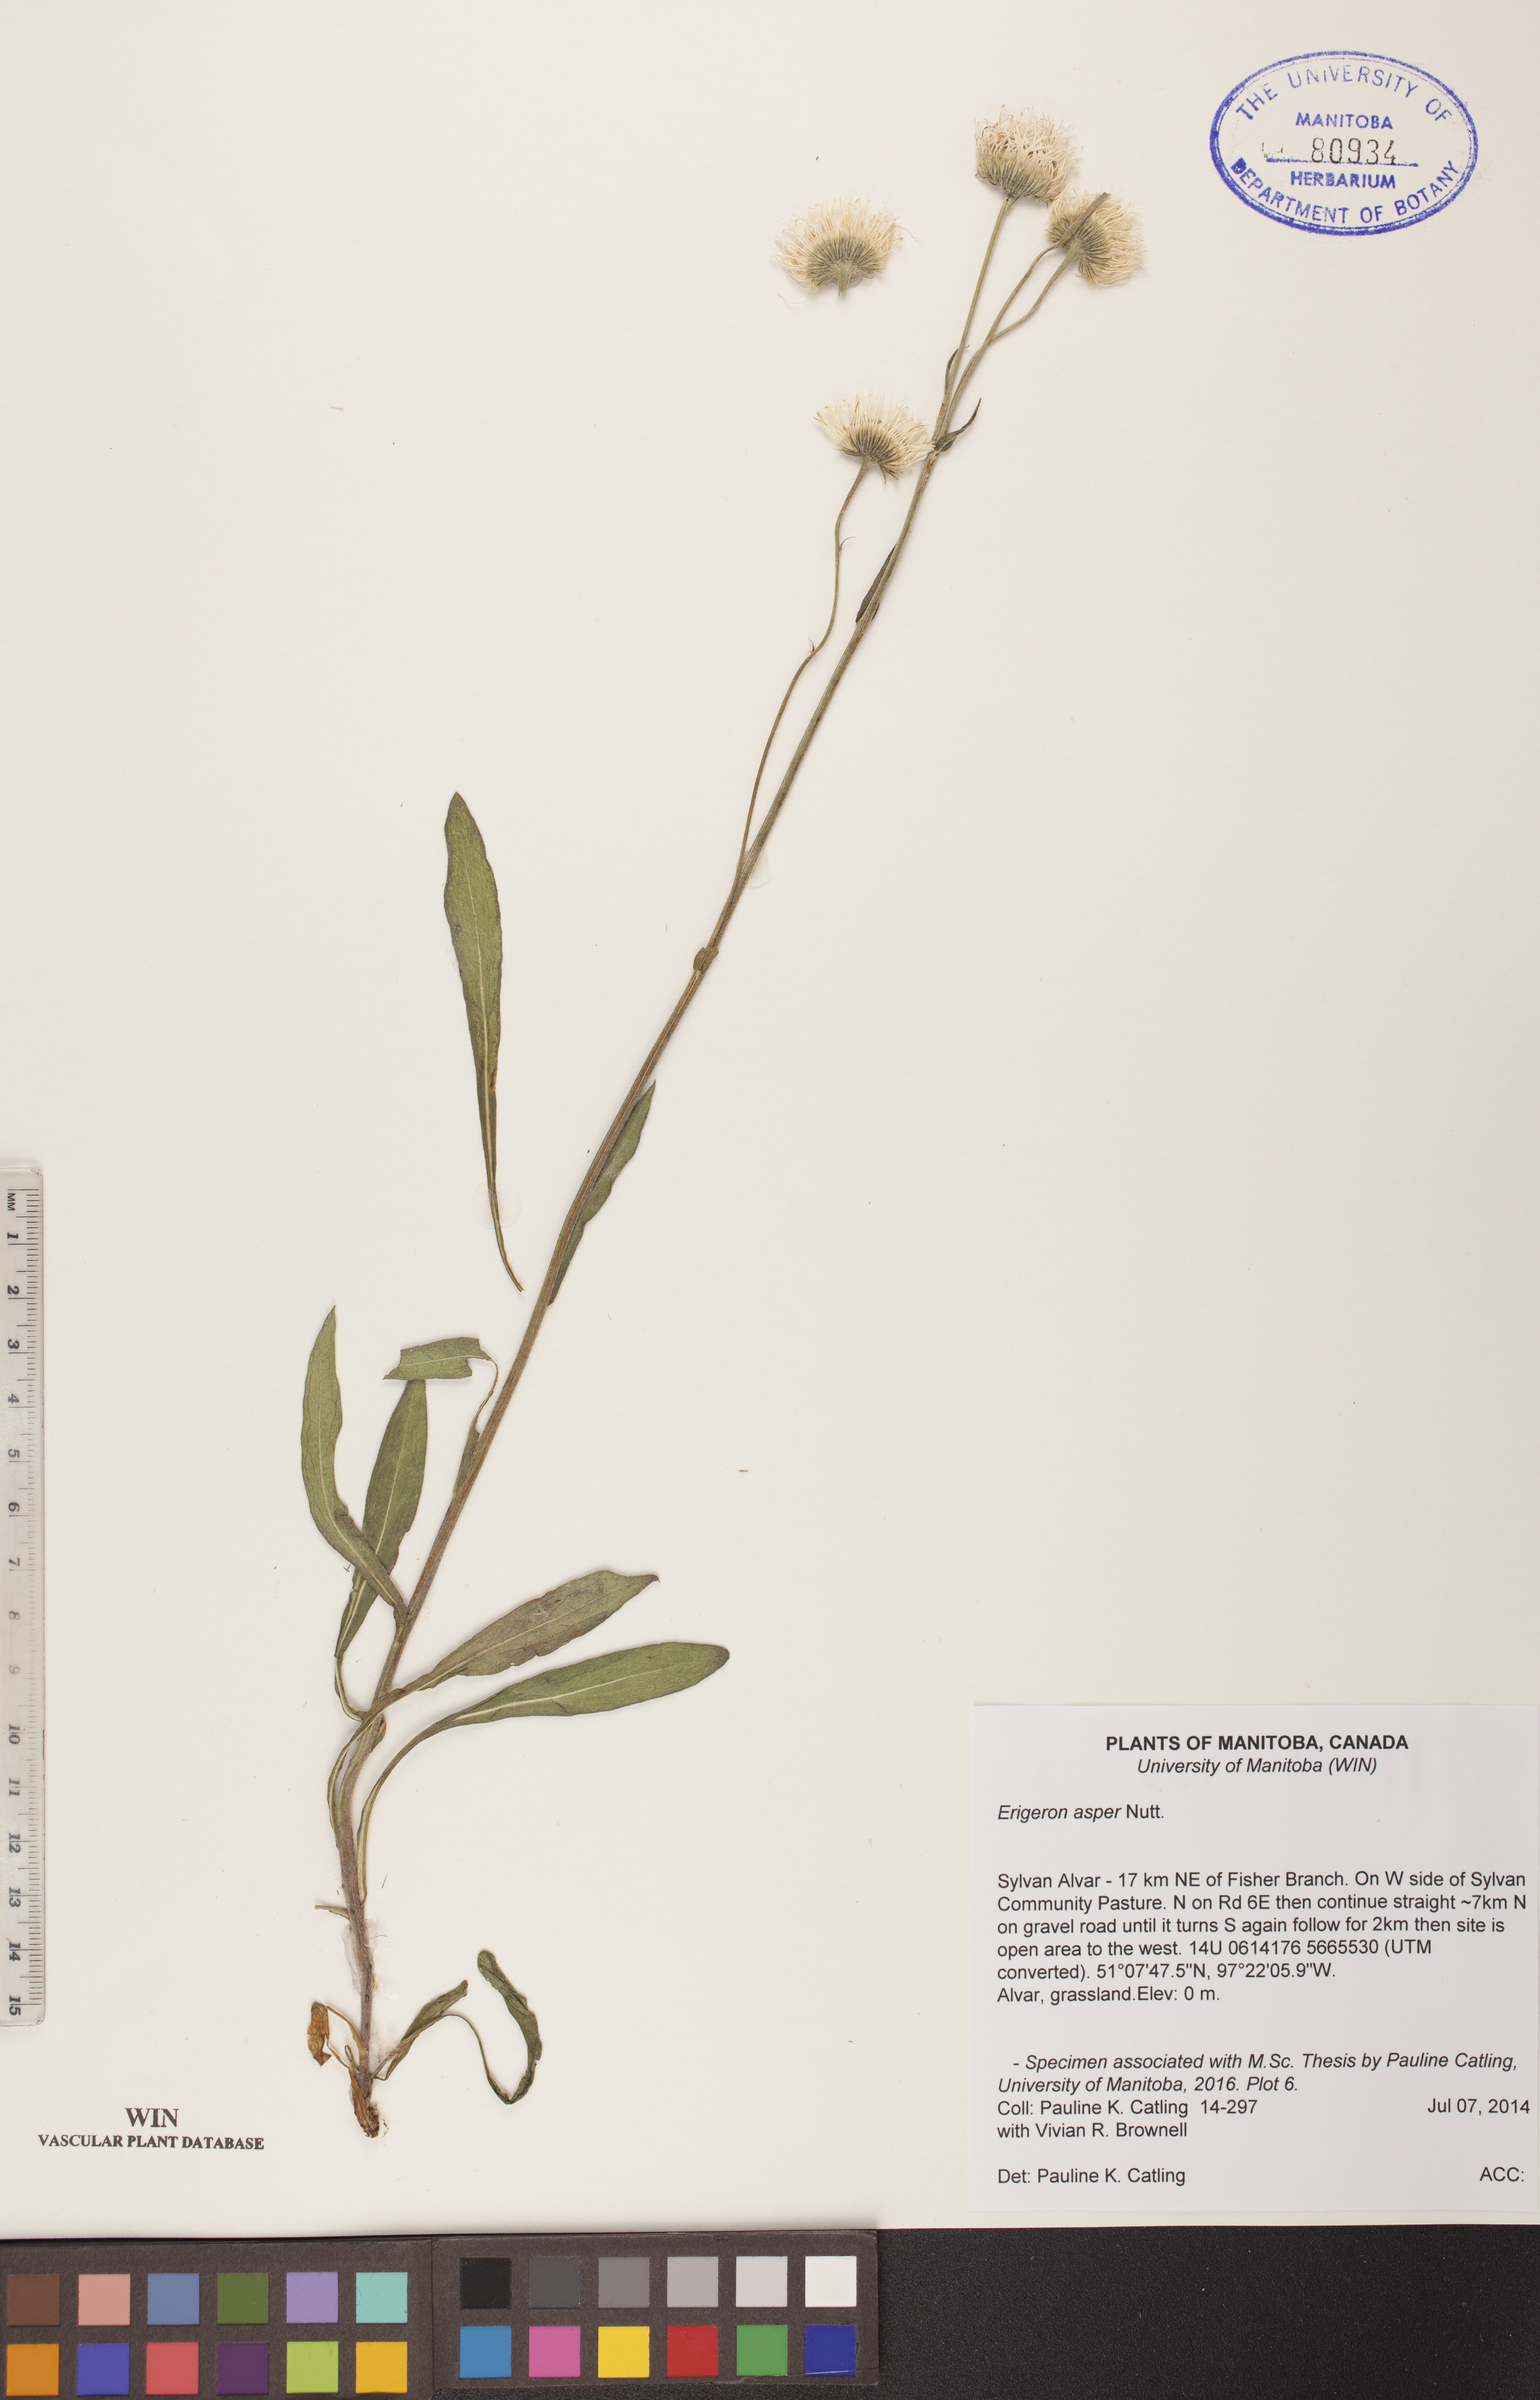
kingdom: Plantae
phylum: Tracheophyta
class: Magnoliopsida
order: Asterales
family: Asteraceae
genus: Erigeron
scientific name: Erigeron glabellus
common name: Smooth fleabane
